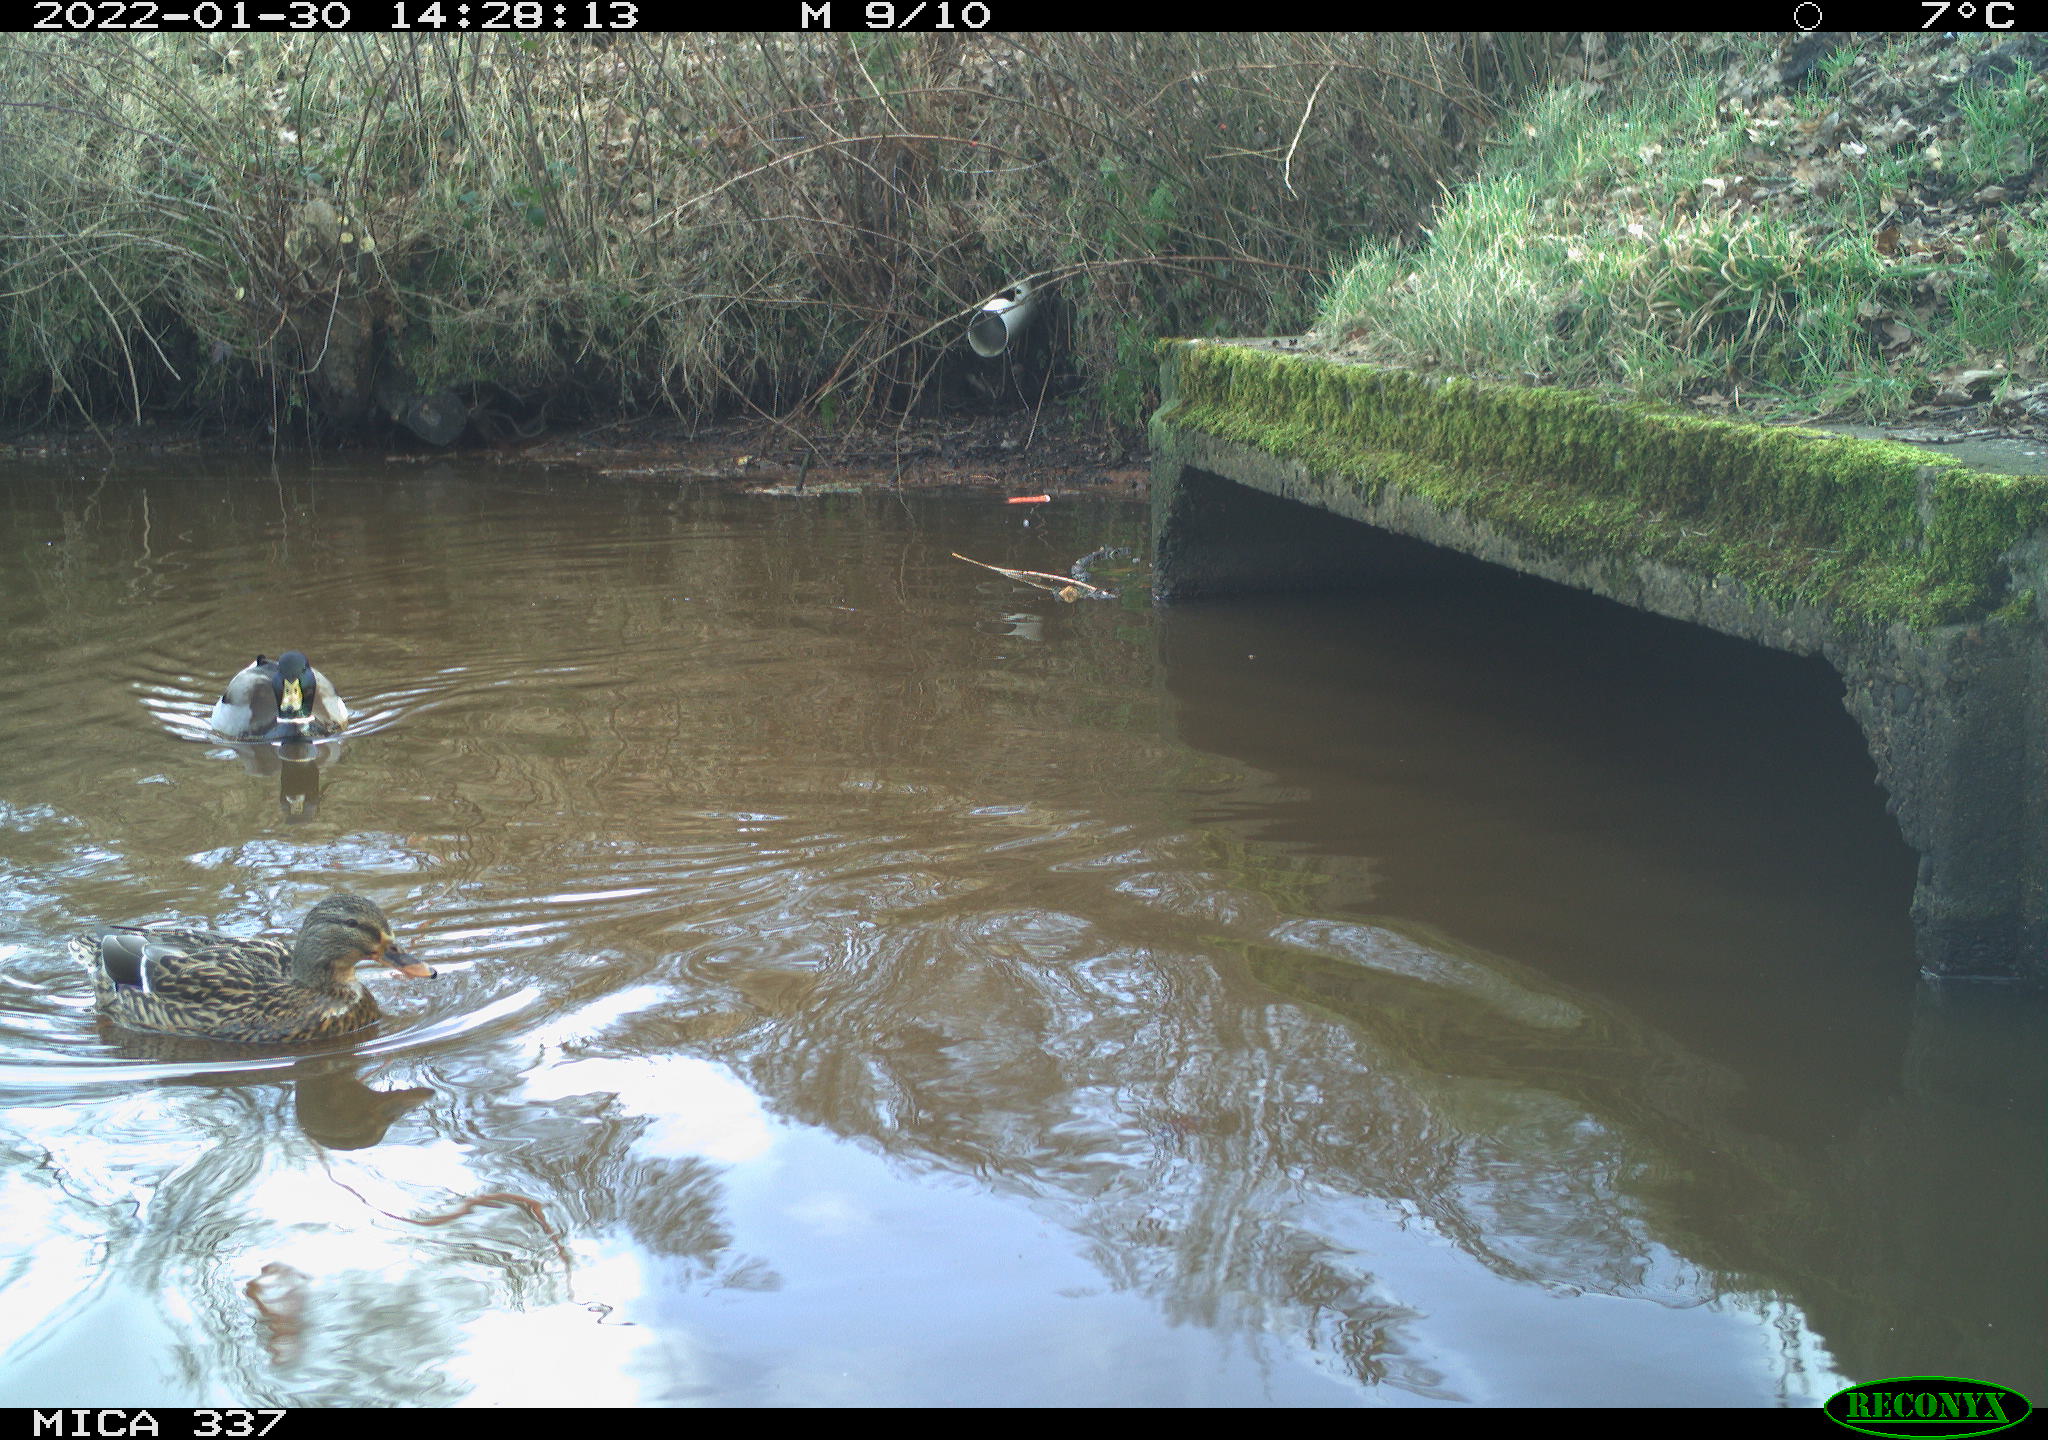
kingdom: Animalia
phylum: Chordata
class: Aves
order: Anseriformes
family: Anatidae
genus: Anas
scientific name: Anas platyrhynchos
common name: Mallard
